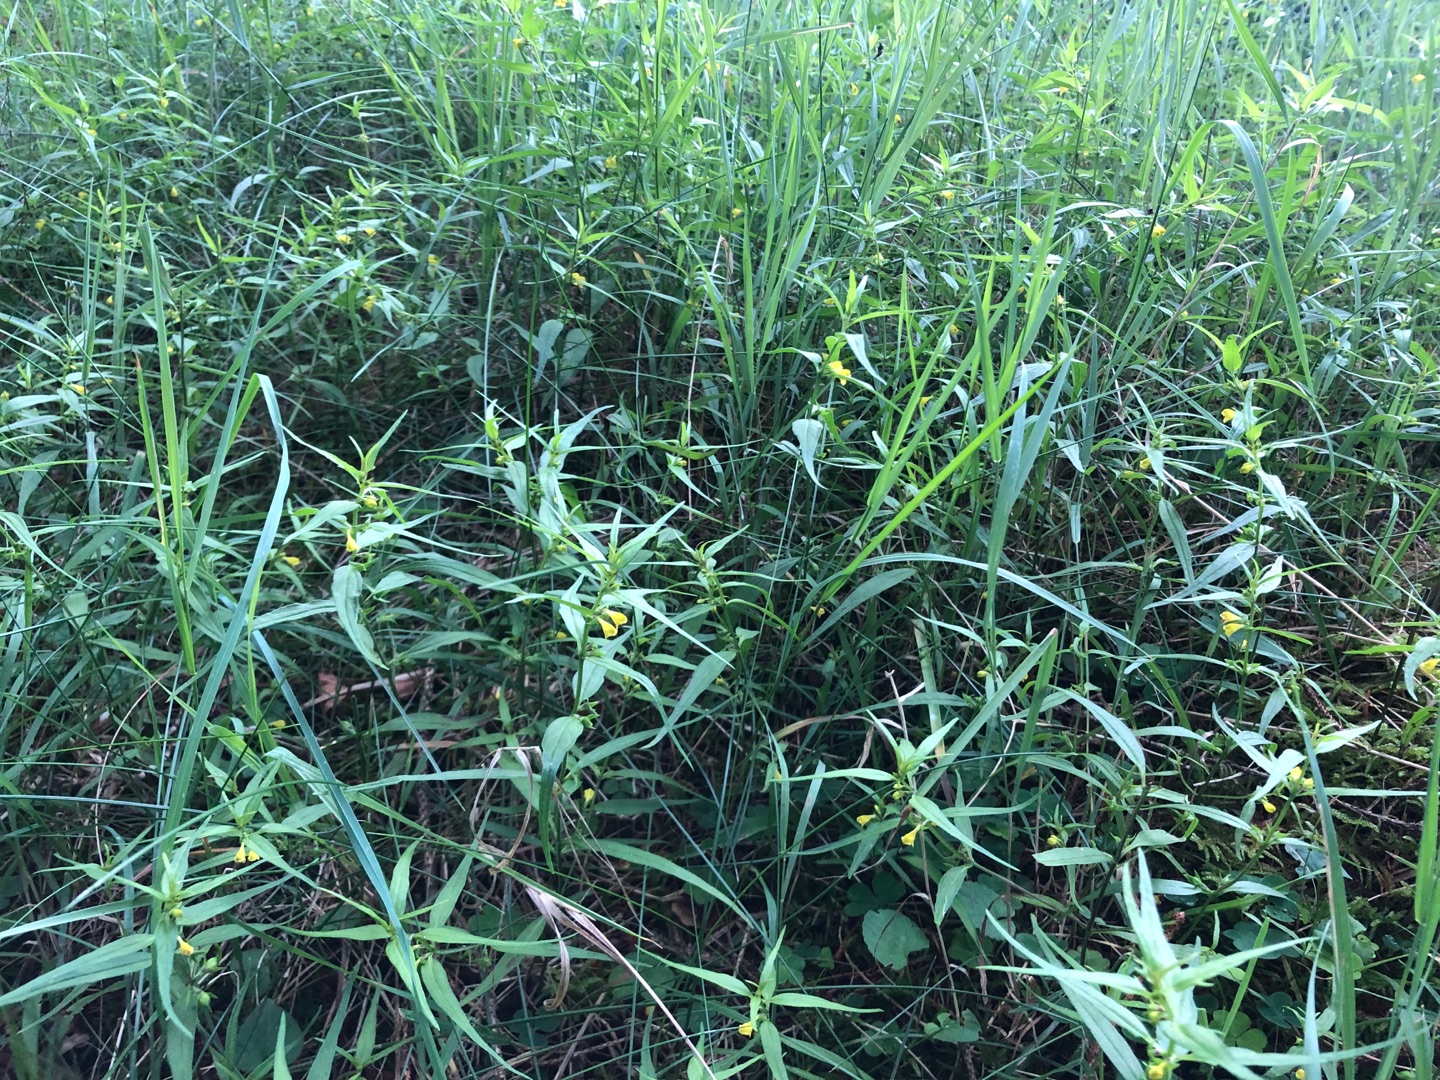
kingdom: Plantae
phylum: Tracheophyta
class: Magnoliopsida
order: Lamiales
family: Orobanchaceae
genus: Melampyrum
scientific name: Melampyrum sylvaticum
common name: Skov-kohvede
